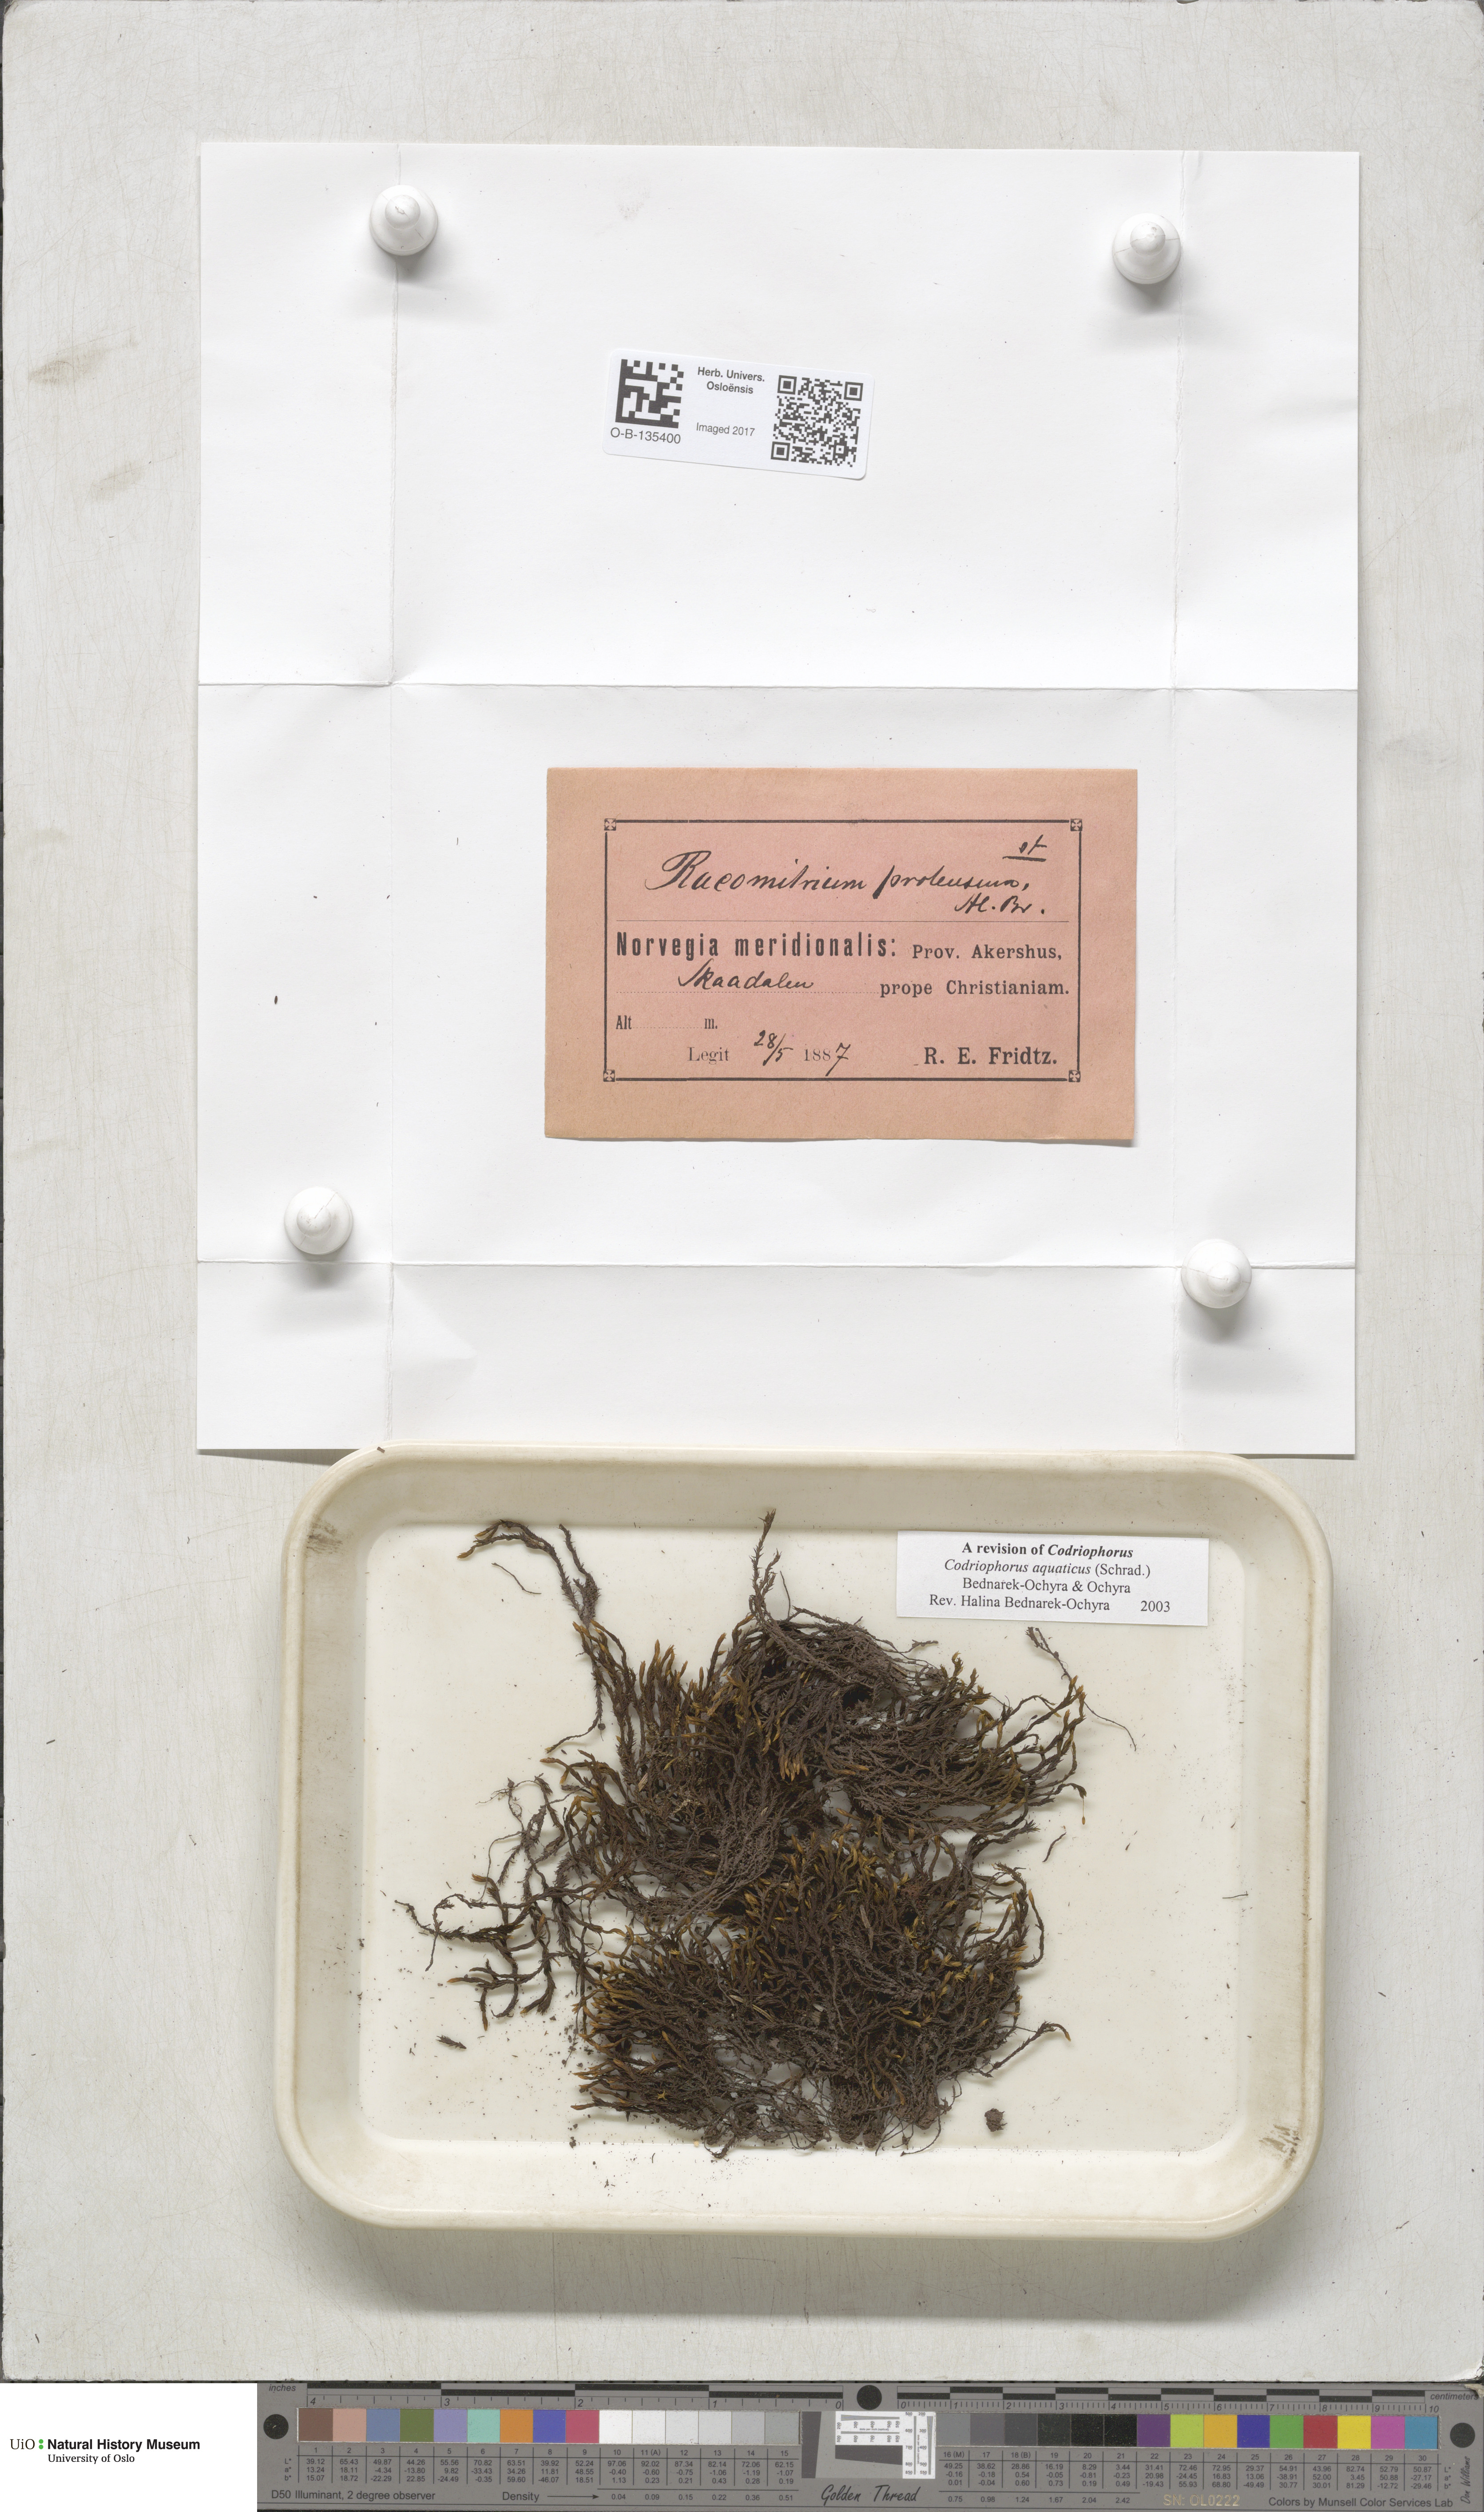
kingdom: Plantae
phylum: Bryophyta
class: Bryopsida
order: Grimmiales
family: Grimmiaceae
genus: Codriophorus
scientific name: Codriophorus aquaticus
